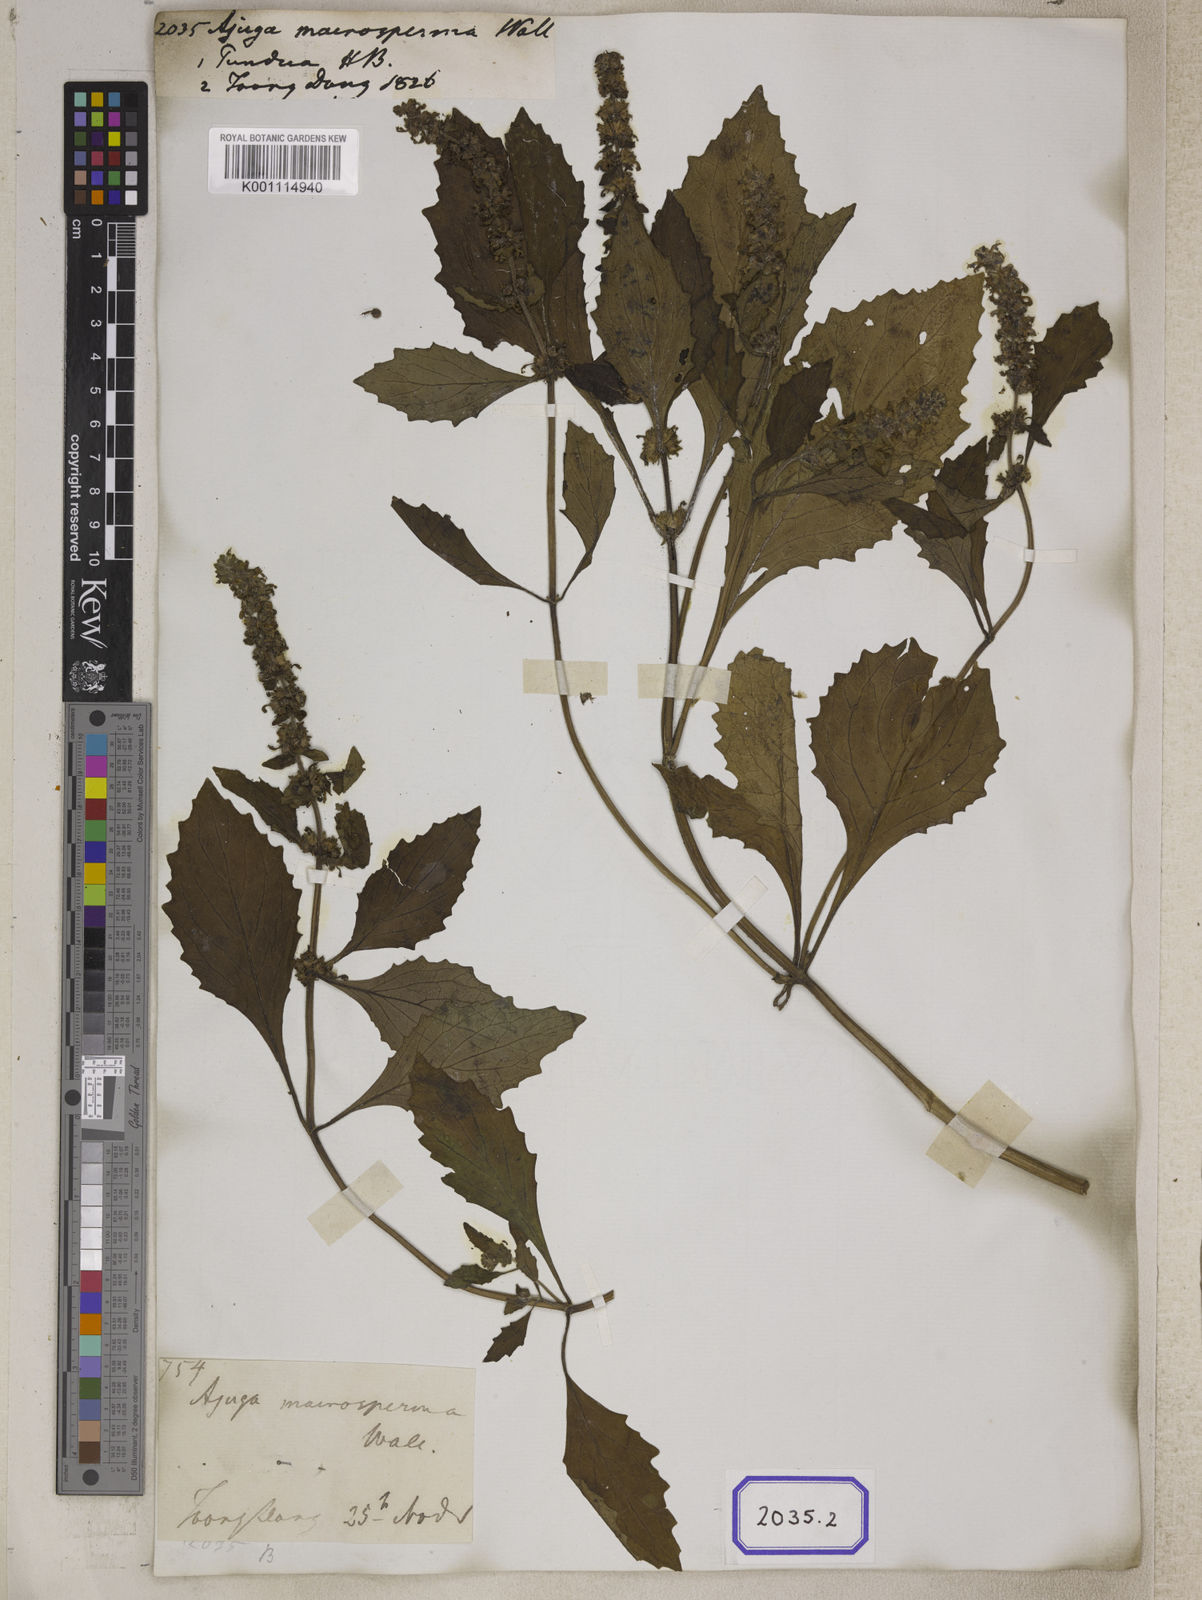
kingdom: Plantae
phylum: Tracheophyta
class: Magnoliopsida
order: Lamiales
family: Lamiaceae
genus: Ajuga
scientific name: Ajuga
